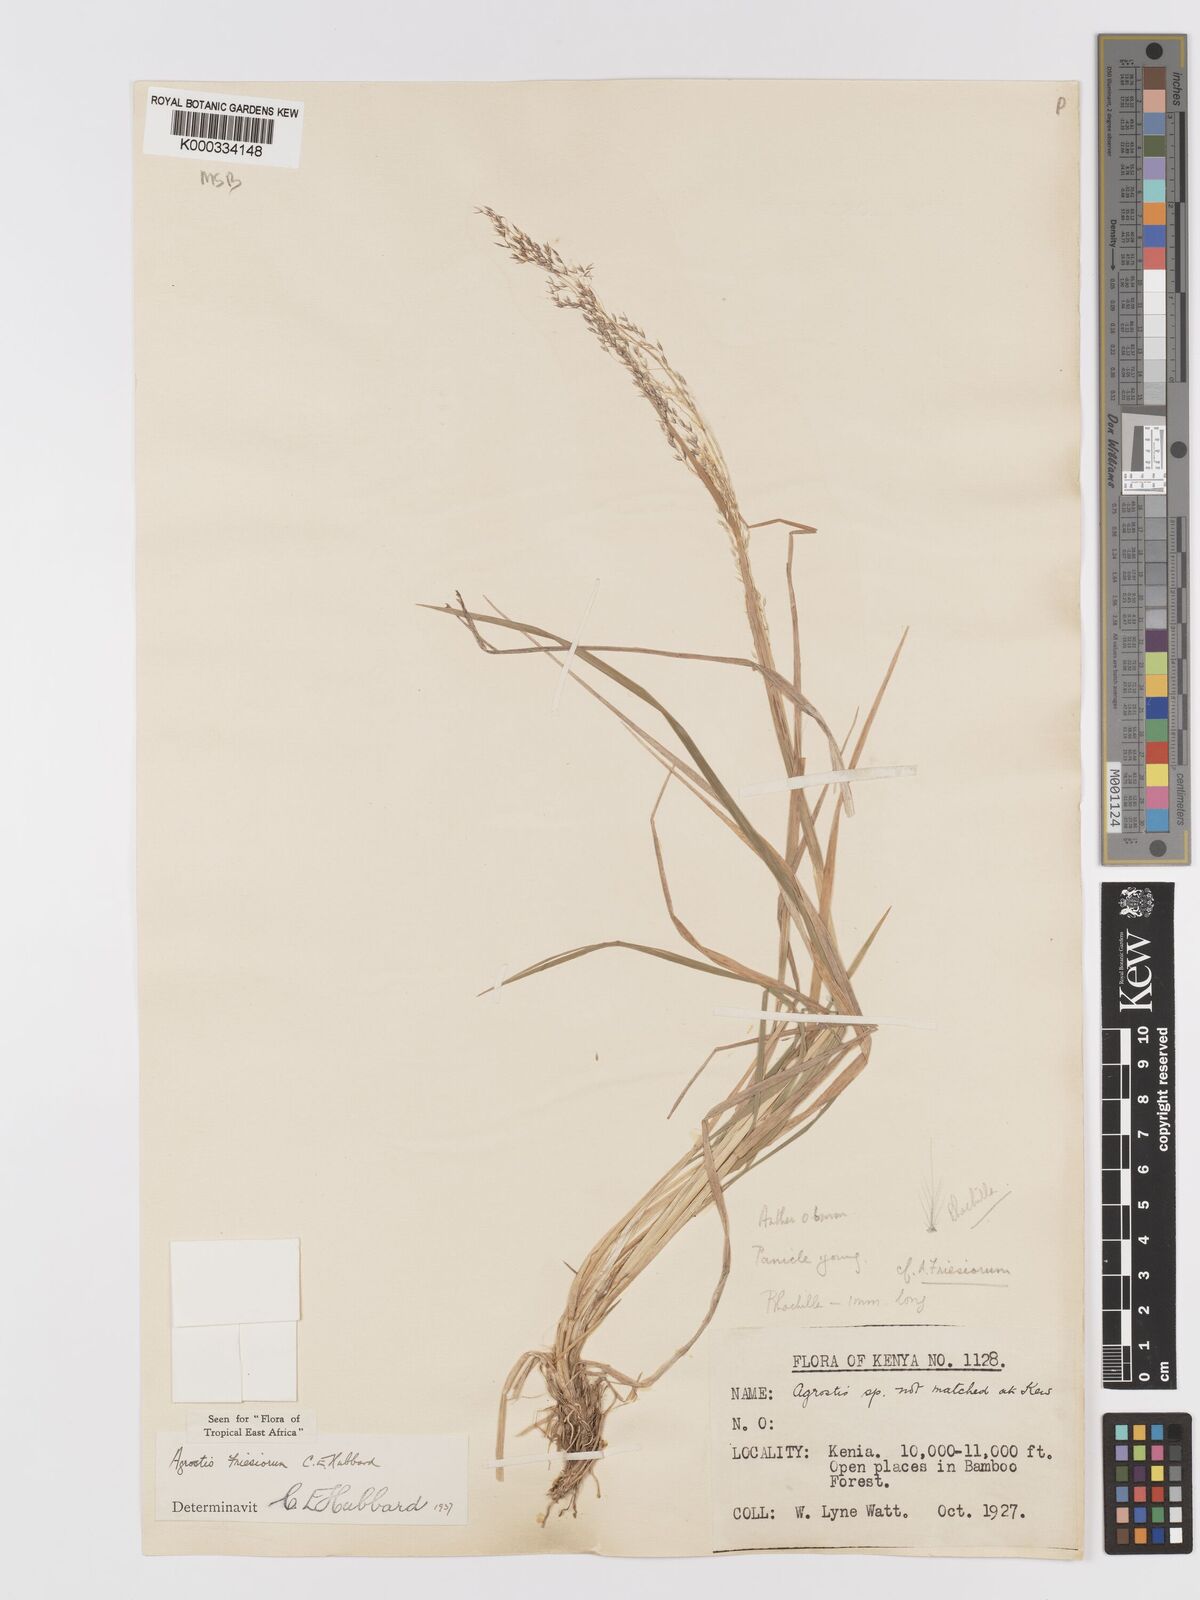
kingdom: Plantae
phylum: Tracheophyta
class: Liliopsida
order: Poales
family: Poaceae
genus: Agrostis
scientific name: Agrostis kilimandscharica
